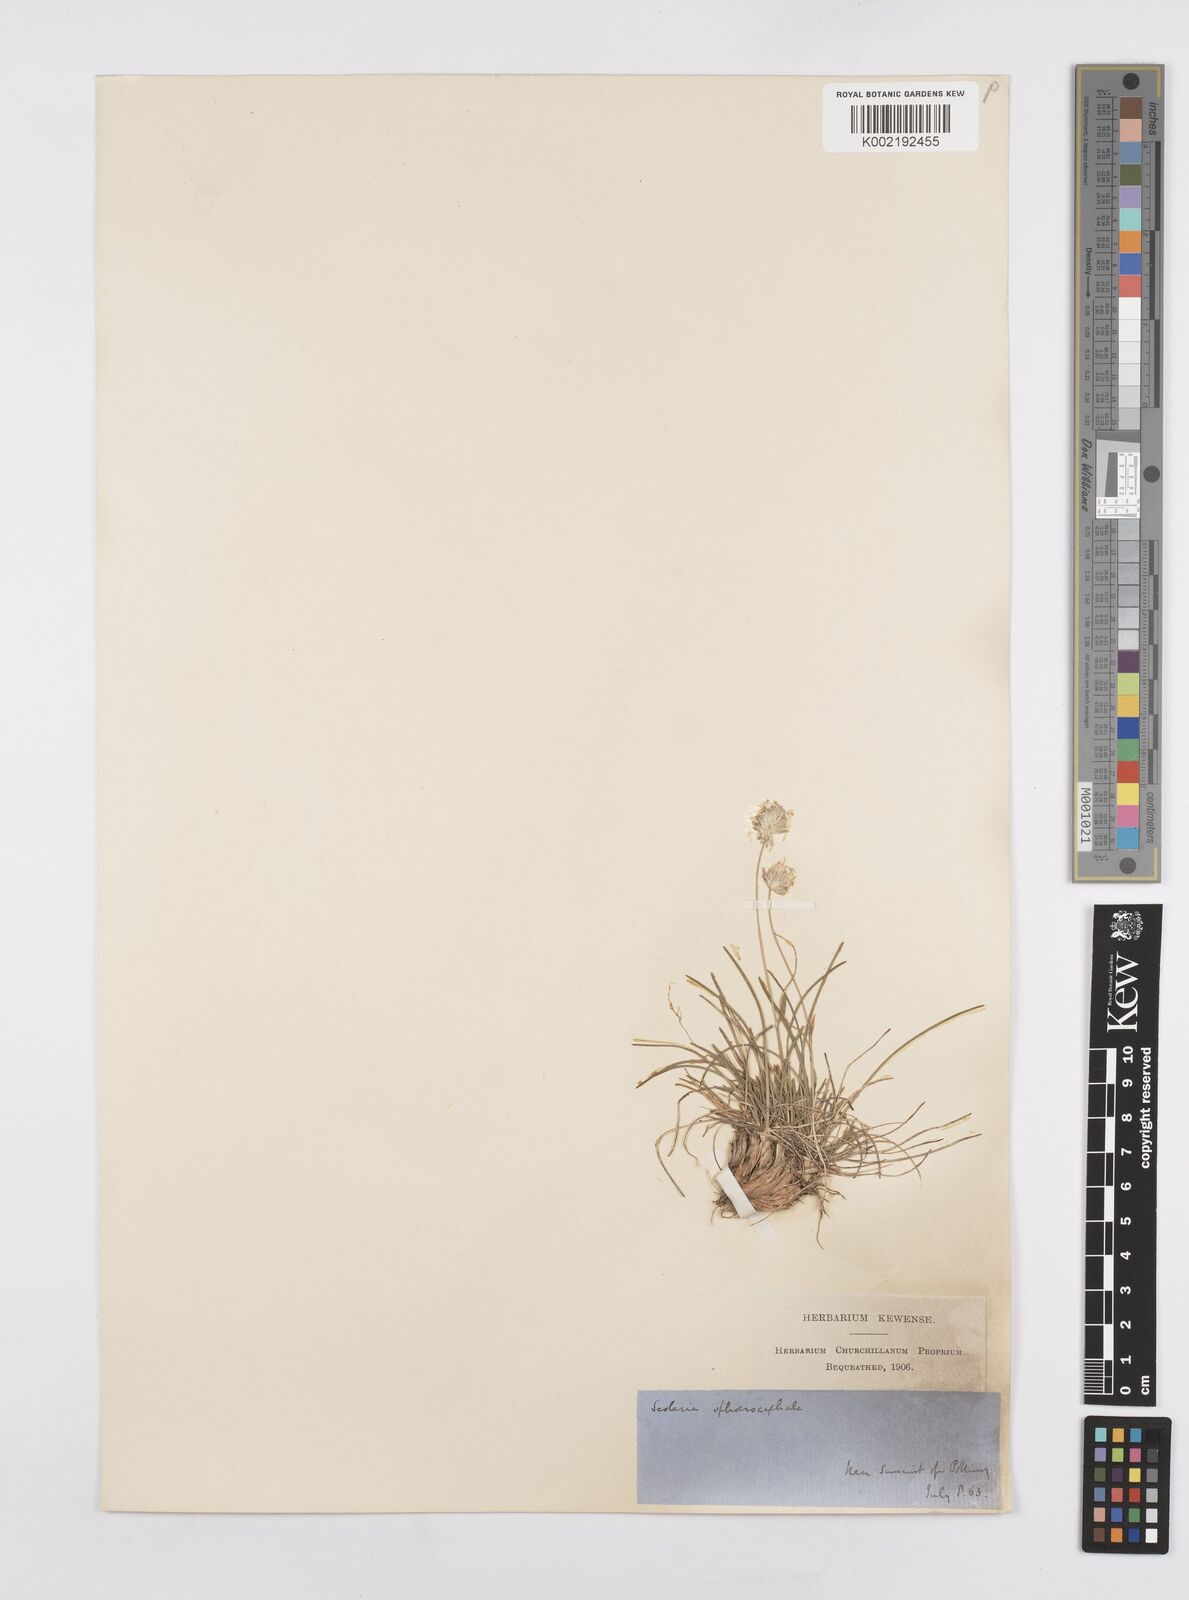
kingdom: Plantae
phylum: Tracheophyta
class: Liliopsida
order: Poales
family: Poaceae
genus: Sesleriella
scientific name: Sesleriella sphaerocephala
